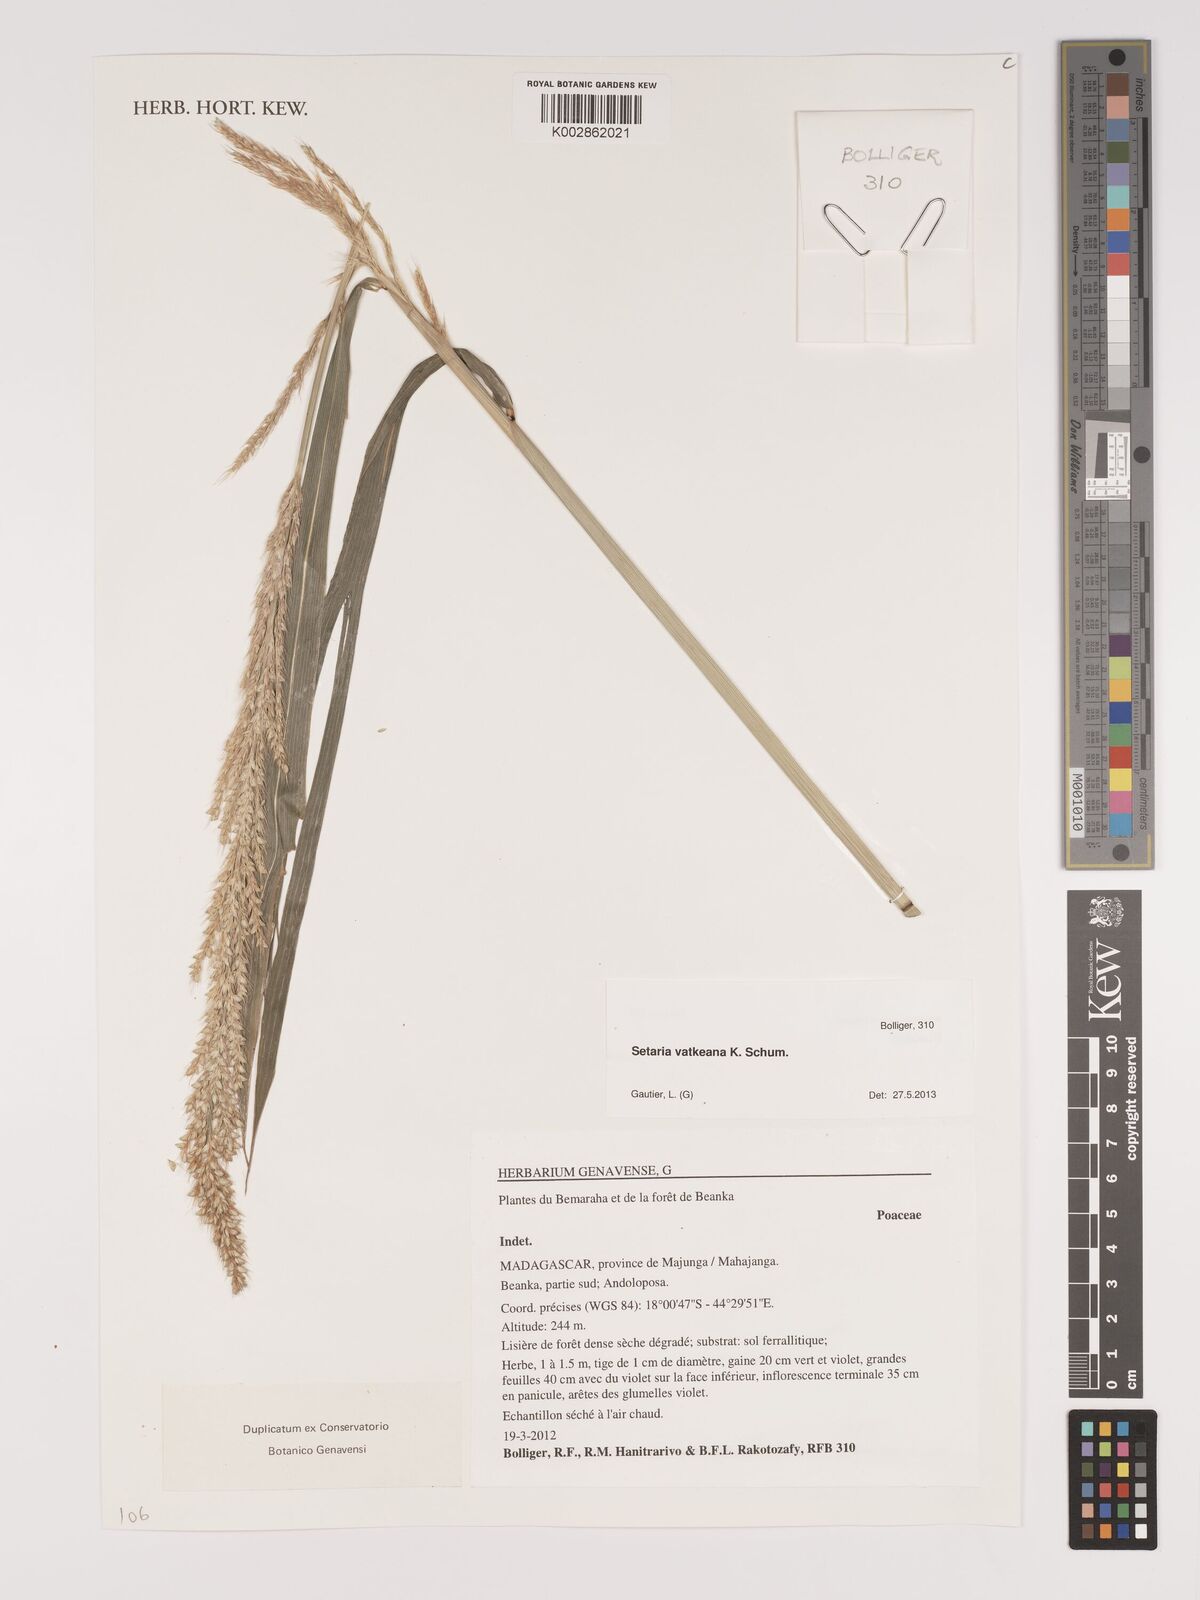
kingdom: Plantae
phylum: Tracheophyta
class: Liliopsida
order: Poales
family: Poaceae
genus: Setaria
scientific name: Setaria vatkeana
